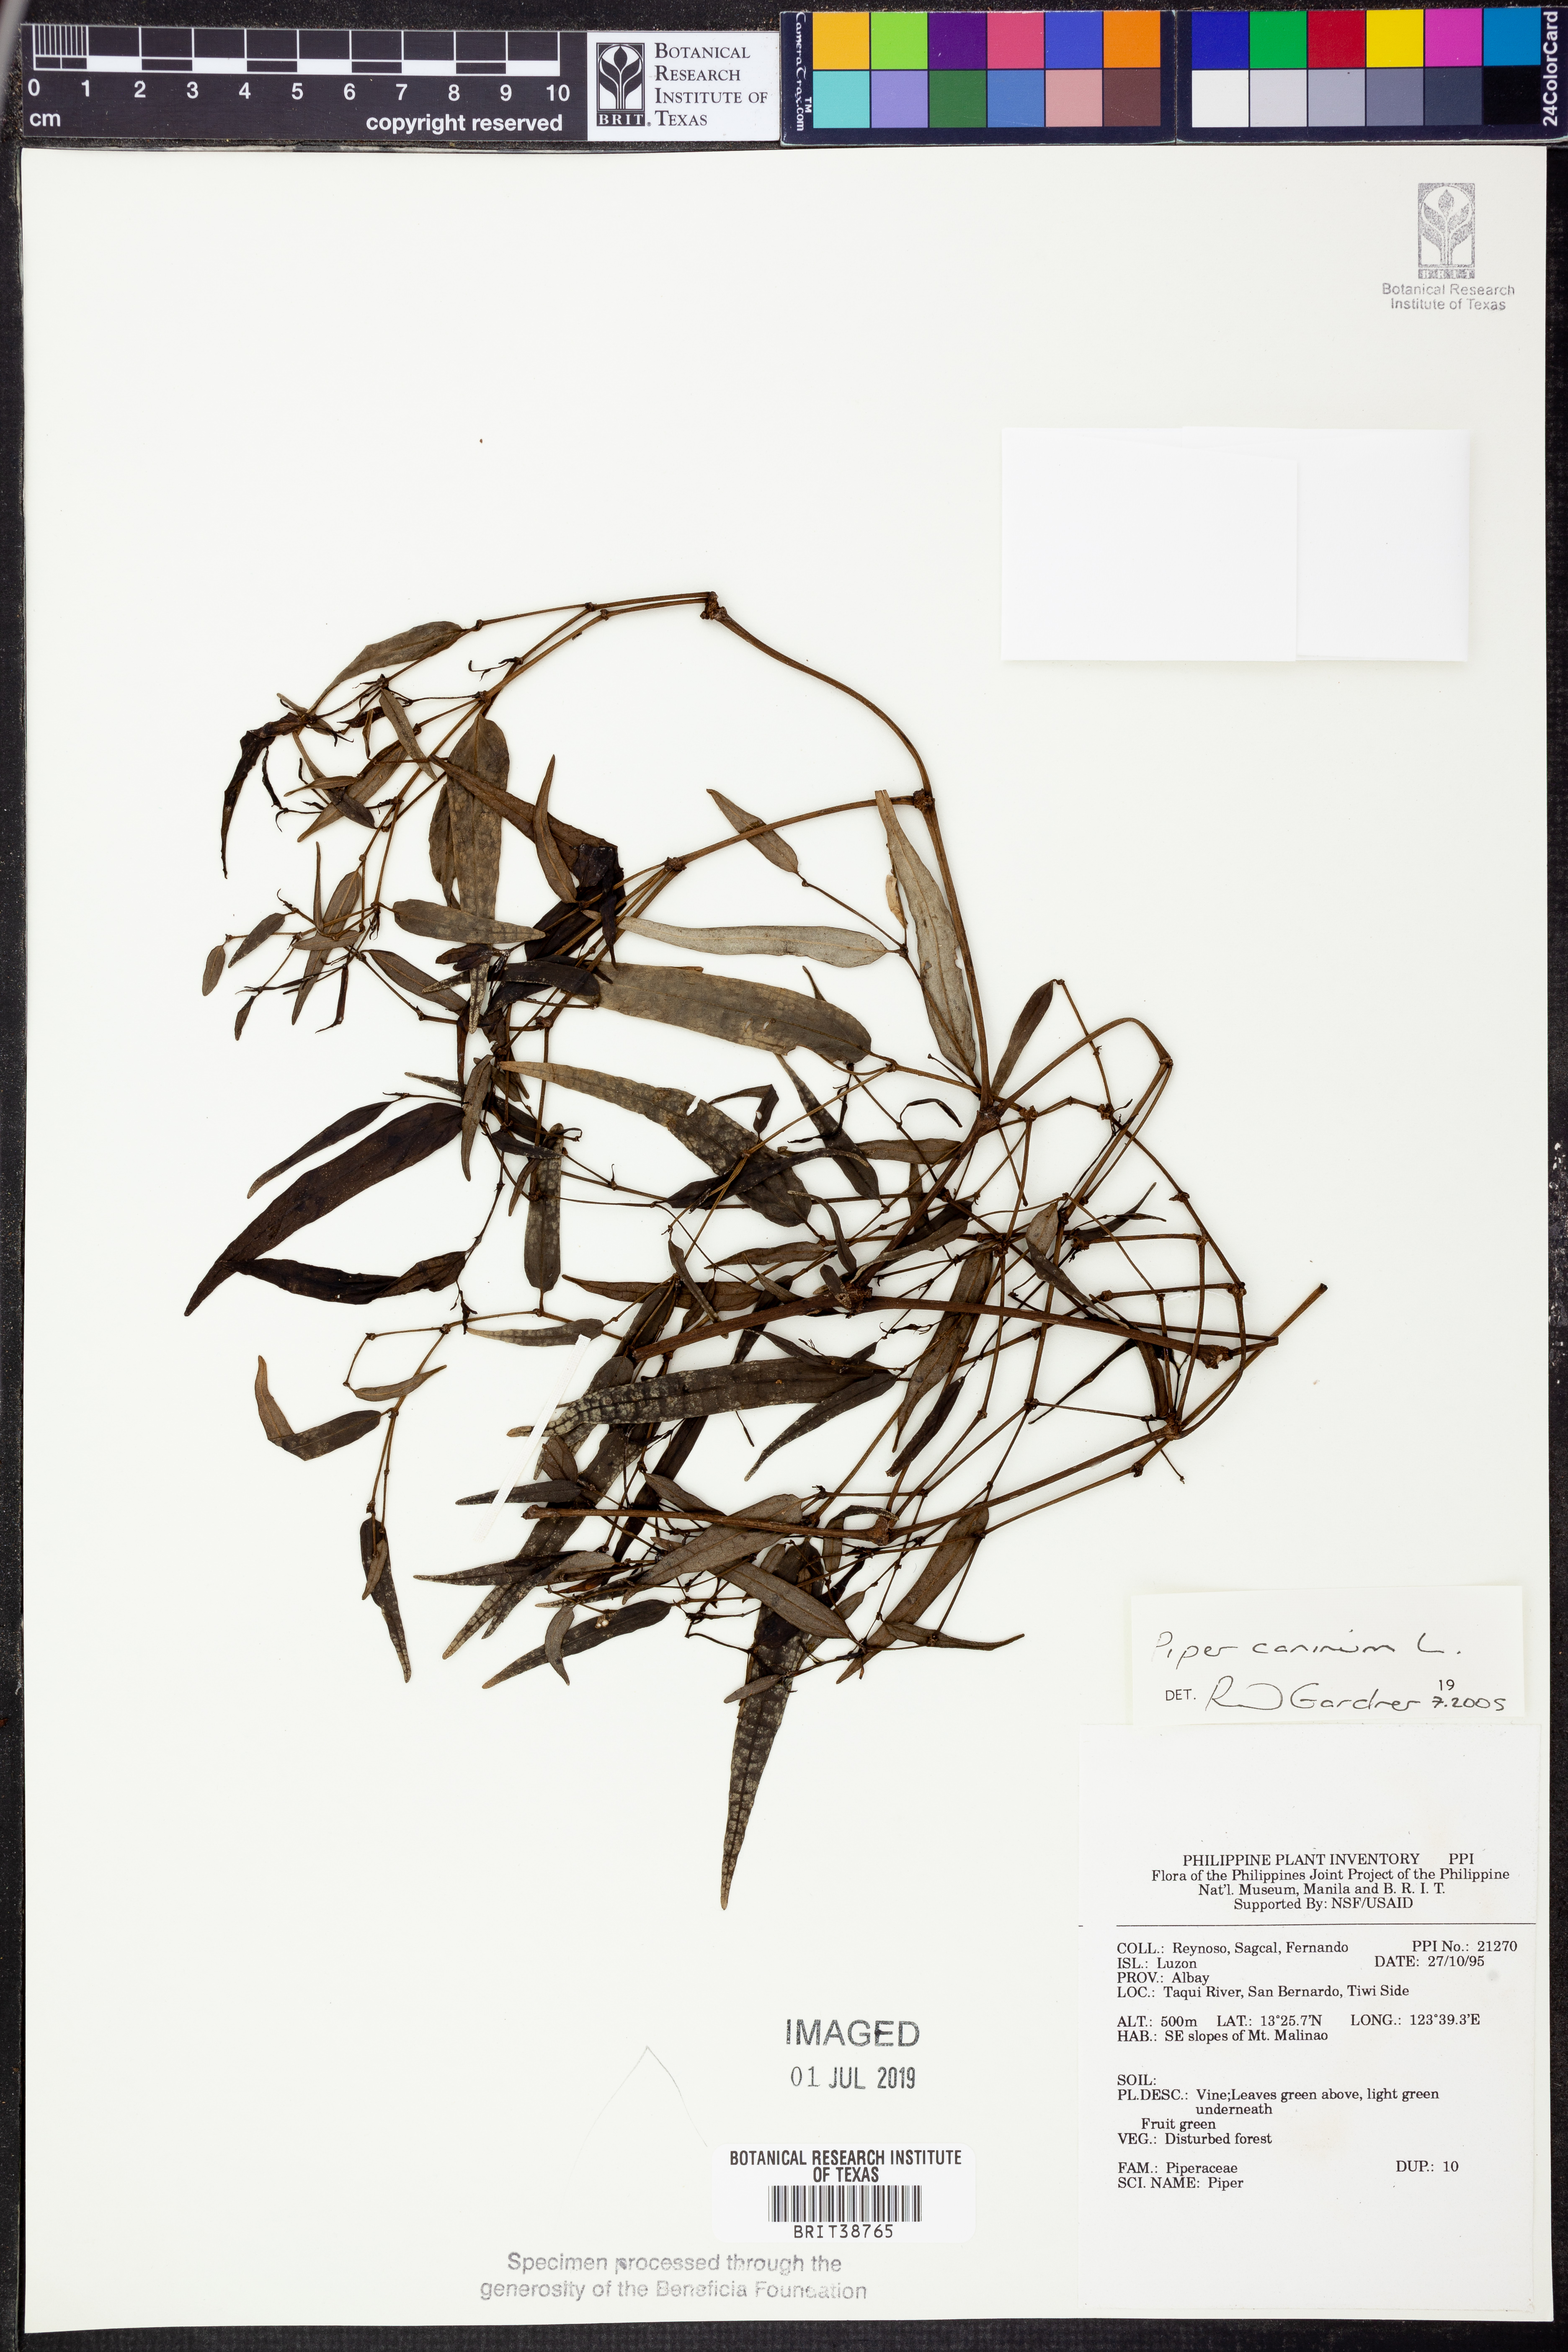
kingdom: Plantae
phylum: Tracheophyta
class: Magnoliopsida
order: Piperales
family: Piperaceae
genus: Piper
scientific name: Piper lanatum
